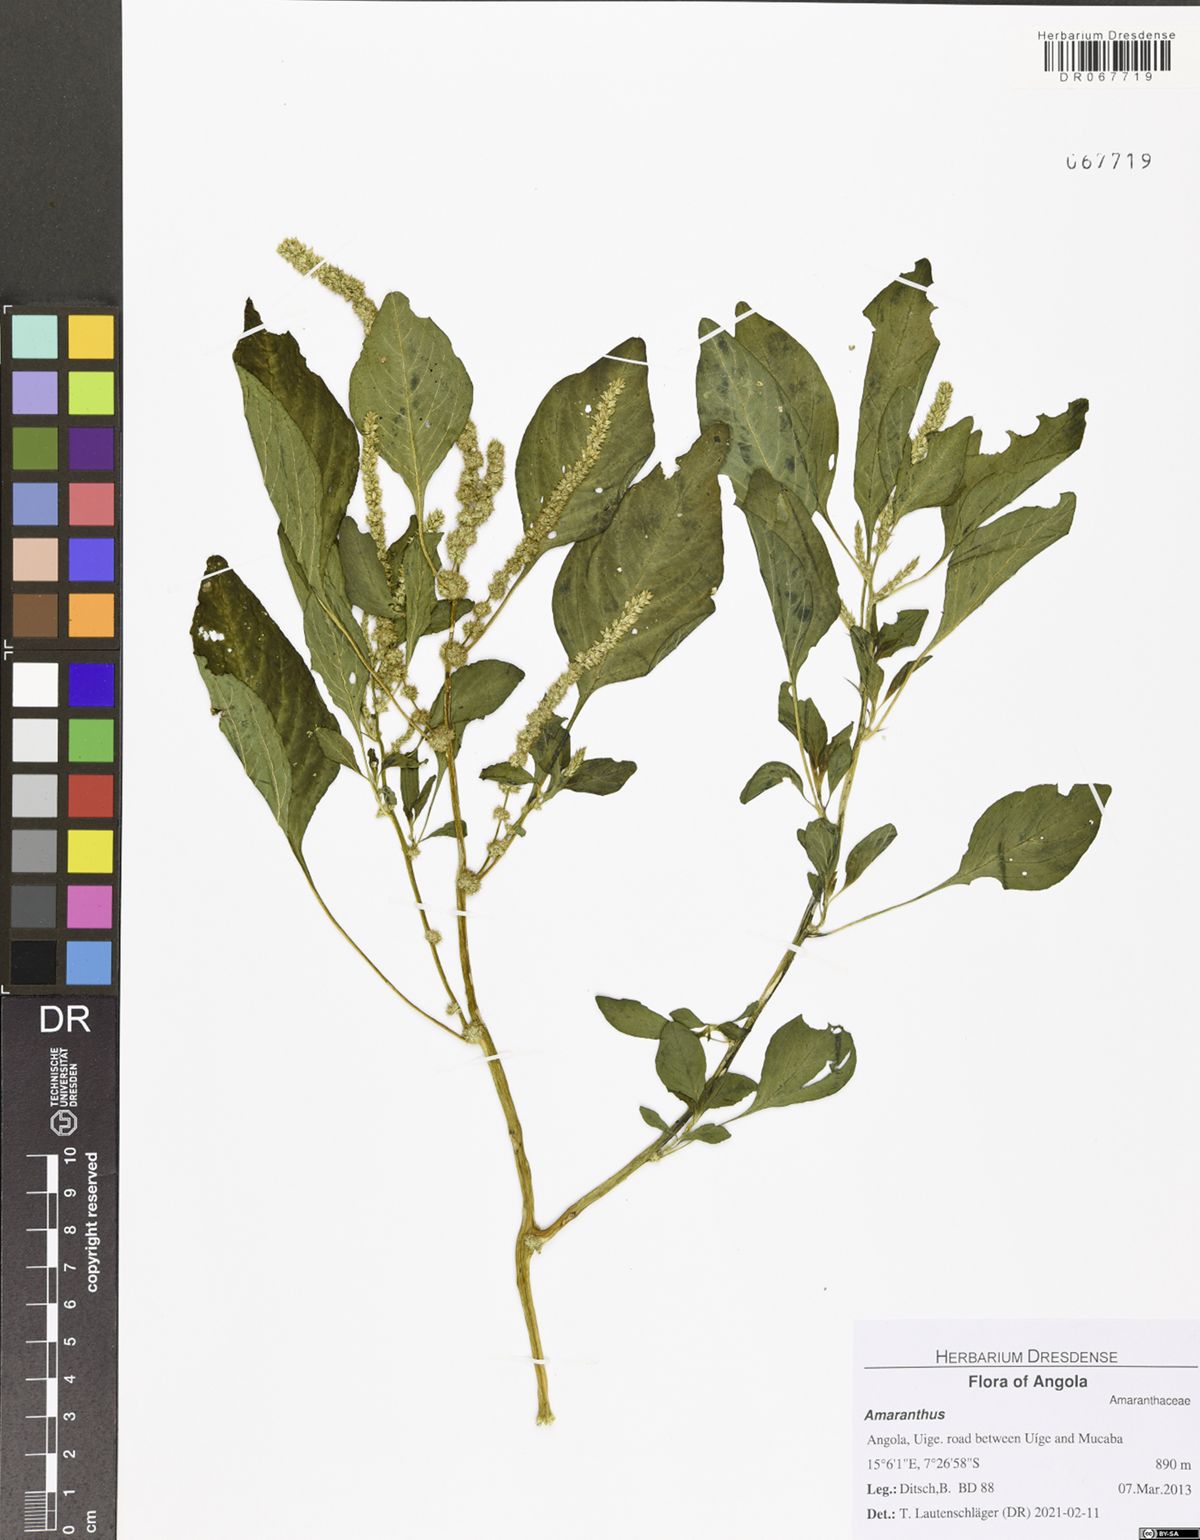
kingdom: Plantae
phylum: Tracheophyta
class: Magnoliopsida
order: Caryophyllales
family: Amaranthaceae
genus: Amaranthus
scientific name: Amaranthus dubius
